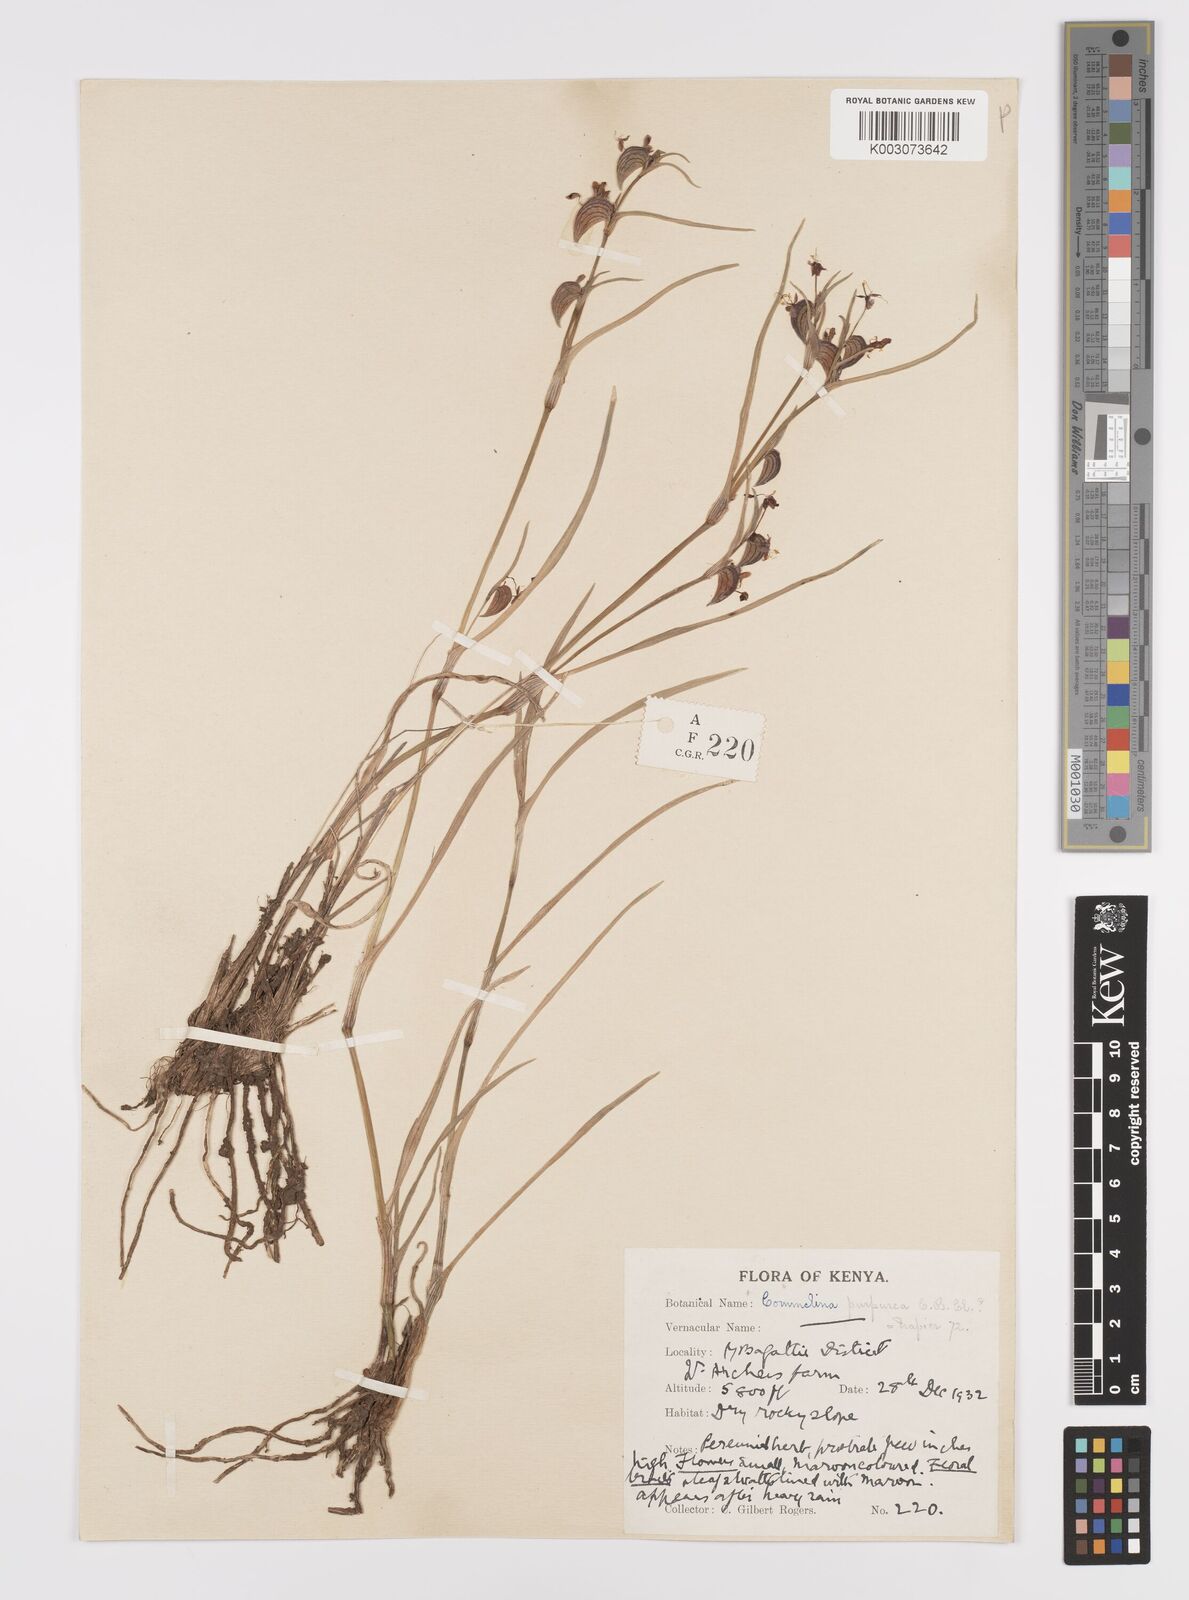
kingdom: Plantae
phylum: Tracheophyta
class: Liliopsida
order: Commelinales
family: Commelinaceae
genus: Commelina
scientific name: Commelina purpurea
